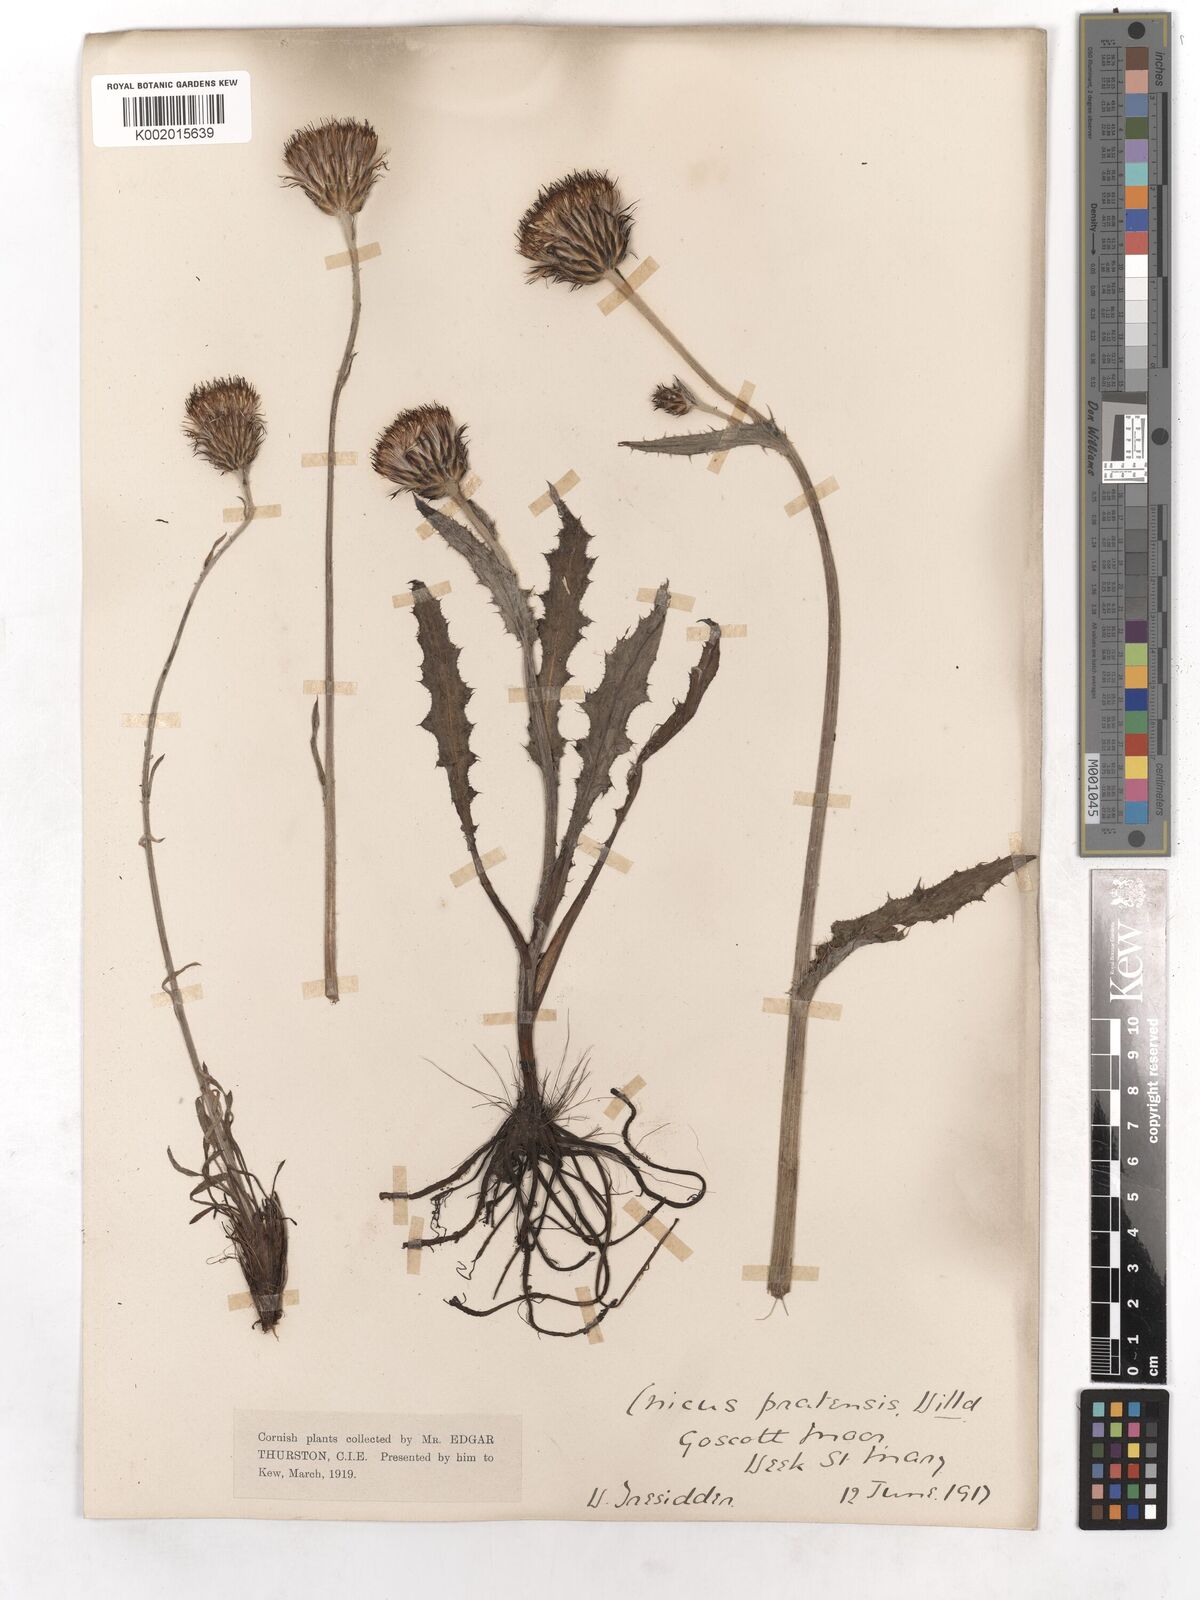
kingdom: Plantae
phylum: Tracheophyta
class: Magnoliopsida
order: Asterales
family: Asteraceae
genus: Cirsium
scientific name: Cirsium dissectum
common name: Meadow thistle
